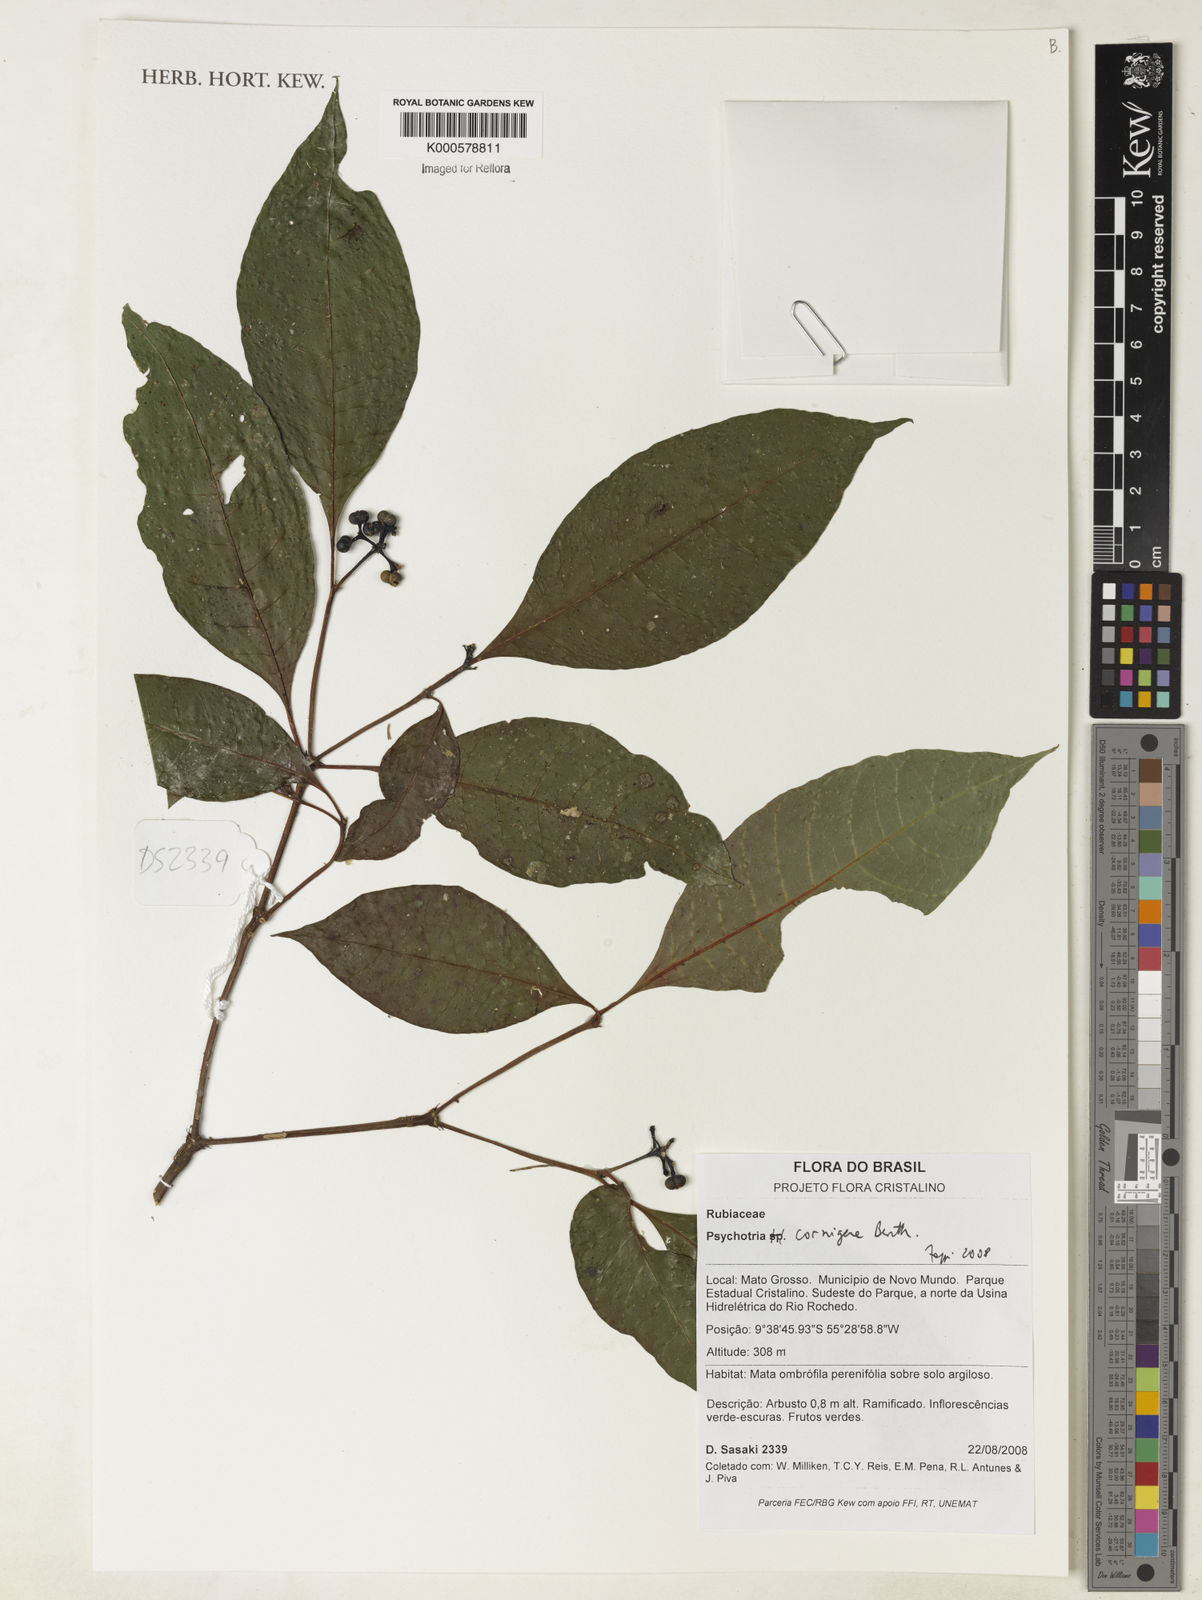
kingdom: Plantae
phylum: Tracheophyta
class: Magnoliopsida
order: Gentianales
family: Rubiaceae
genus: Palicourea
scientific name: Palicourea subcuspidata
